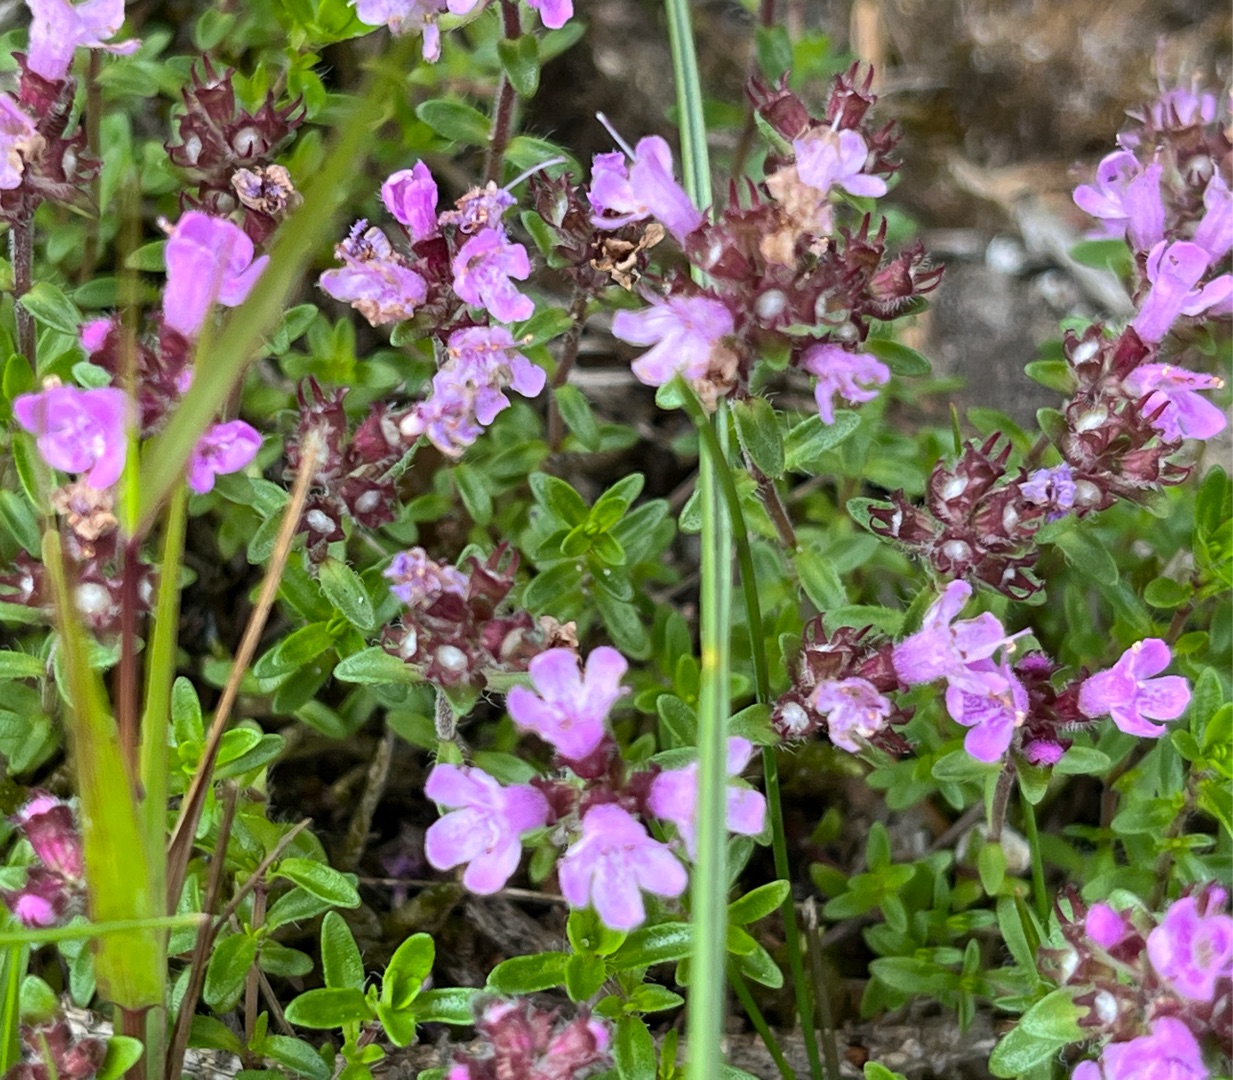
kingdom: Plantae
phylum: Tracheophyta
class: Magnoliopsida
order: Lamiales
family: Lamiaceae
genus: Thymus
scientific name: Thymus serpyllum
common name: Smalbladet timian
